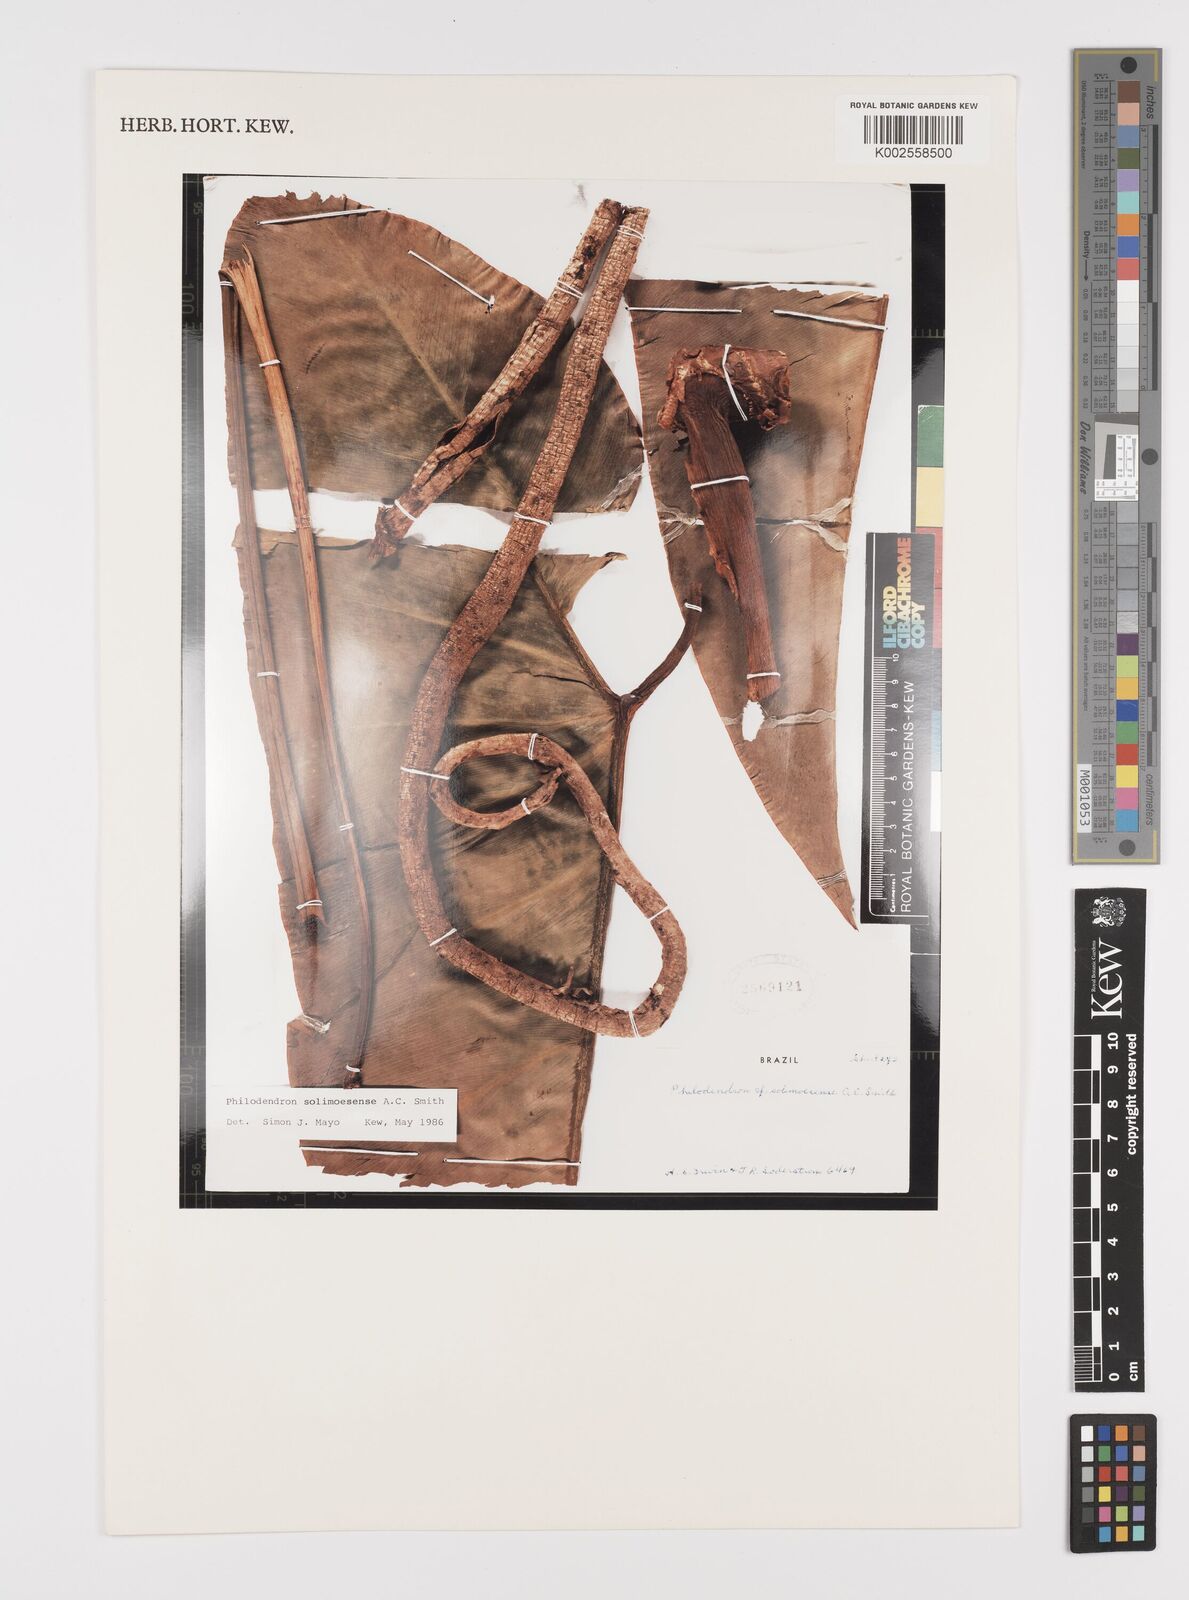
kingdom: Plantae
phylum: Tracheophyta
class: Liliopsida
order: Alismatales
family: Araceae
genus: Thaumatophyllum
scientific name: Thaumatophyllum solimoesense
